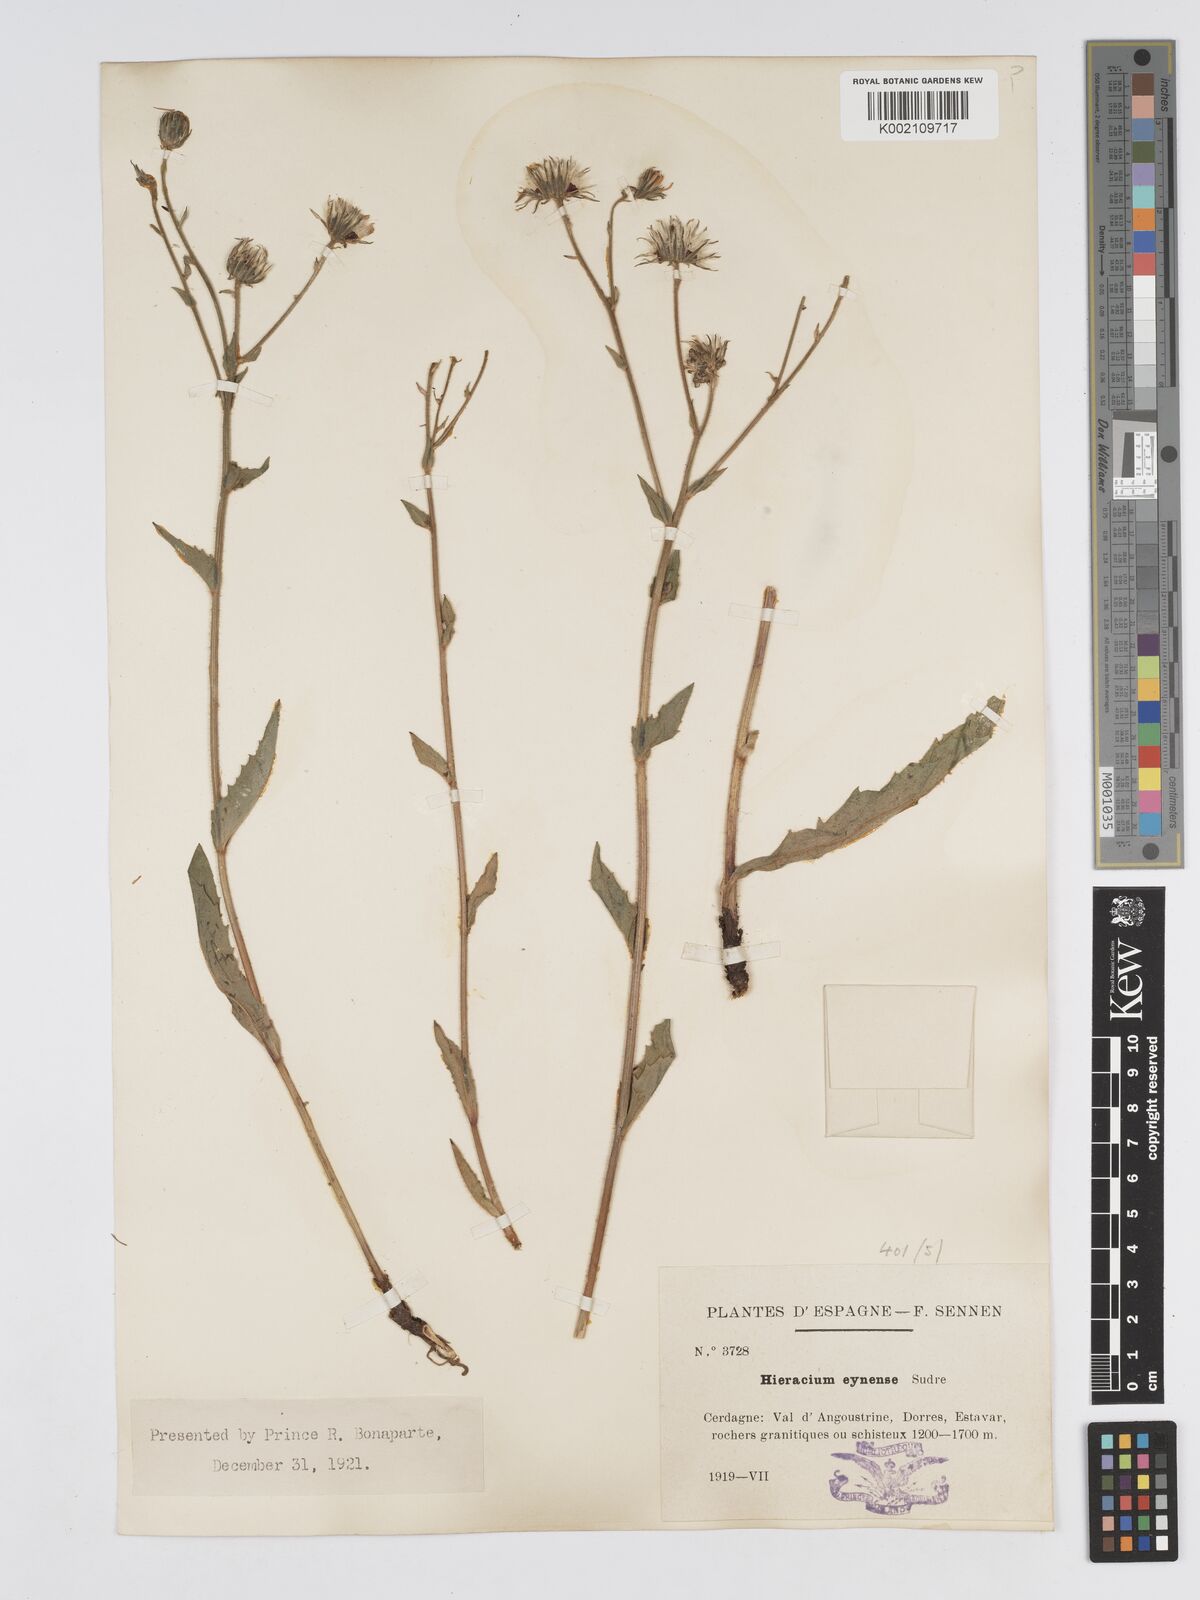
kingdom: Plantae
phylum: Tracheophyta
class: Magnoliopsida
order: Asterales
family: Asteraceae
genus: Hieracium
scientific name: Hieracium
